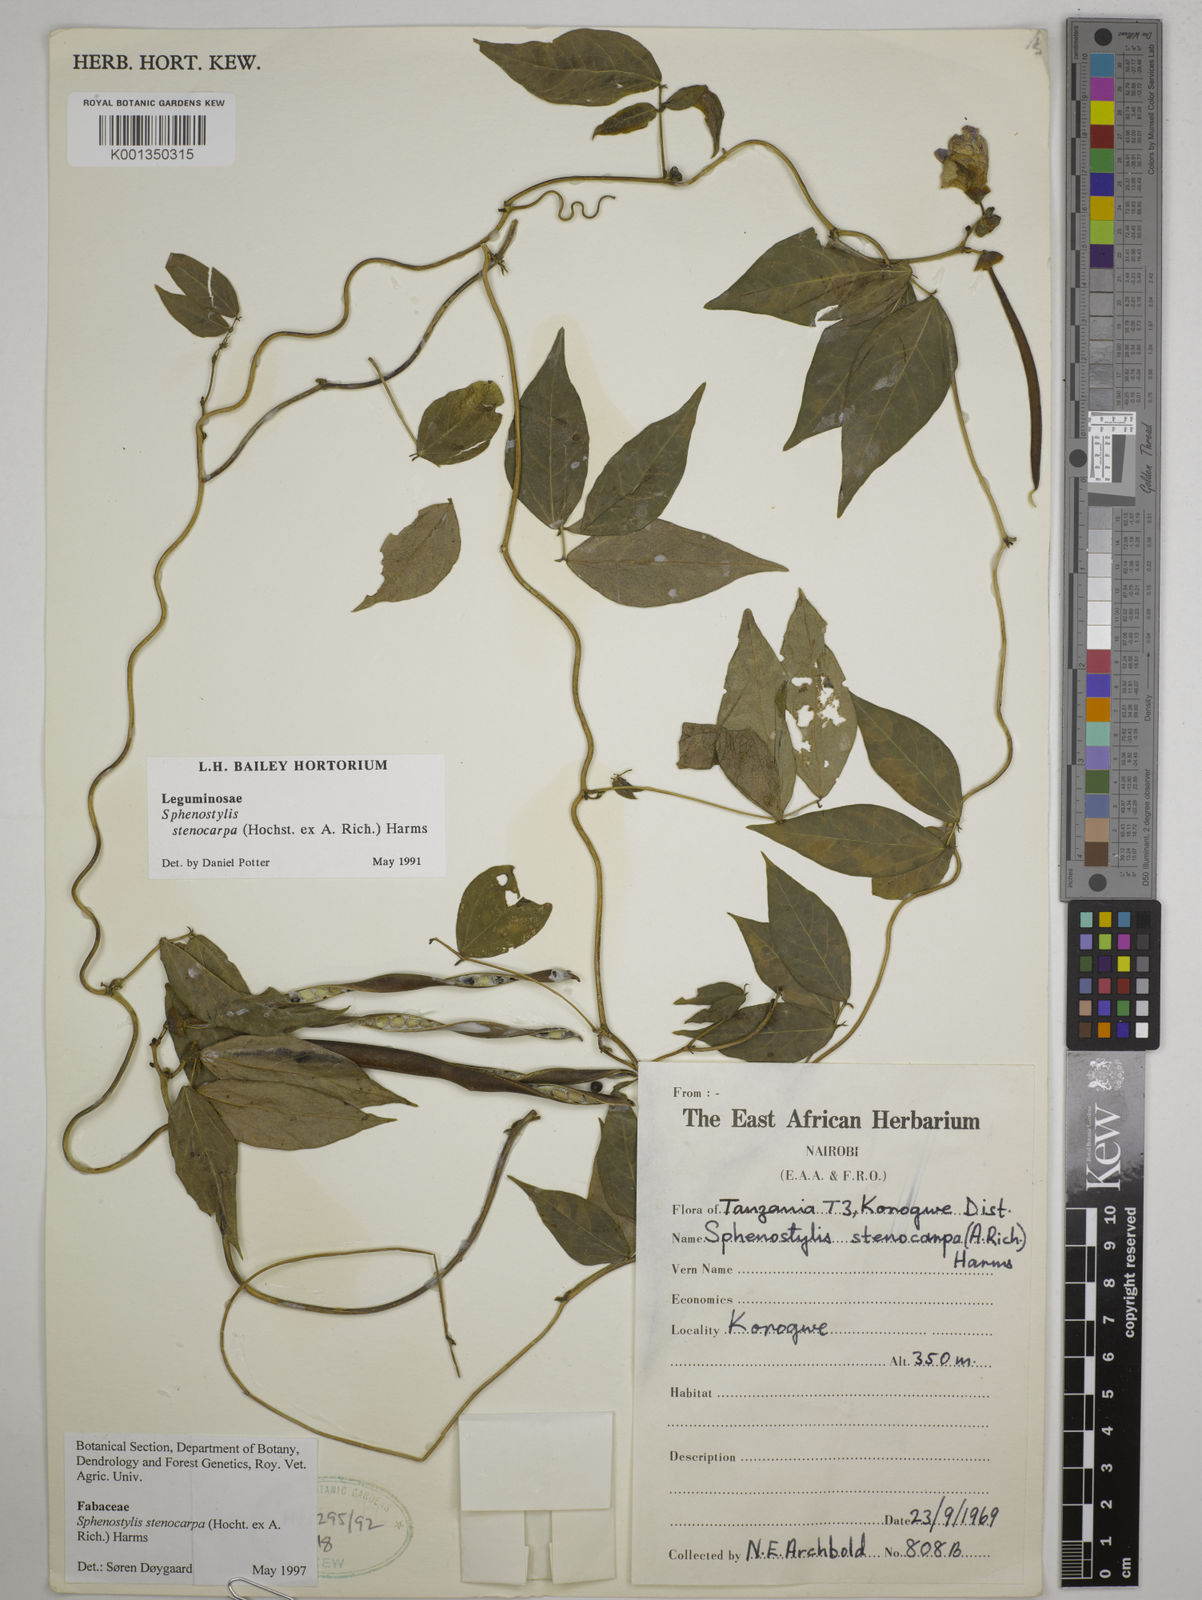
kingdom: Plantae
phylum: Tracheophyta
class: Magnoliopsida
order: Fabales
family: Fabaceae
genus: Sphenostylis
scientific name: Sphenostylis stenocarpa
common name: Yam-pea
